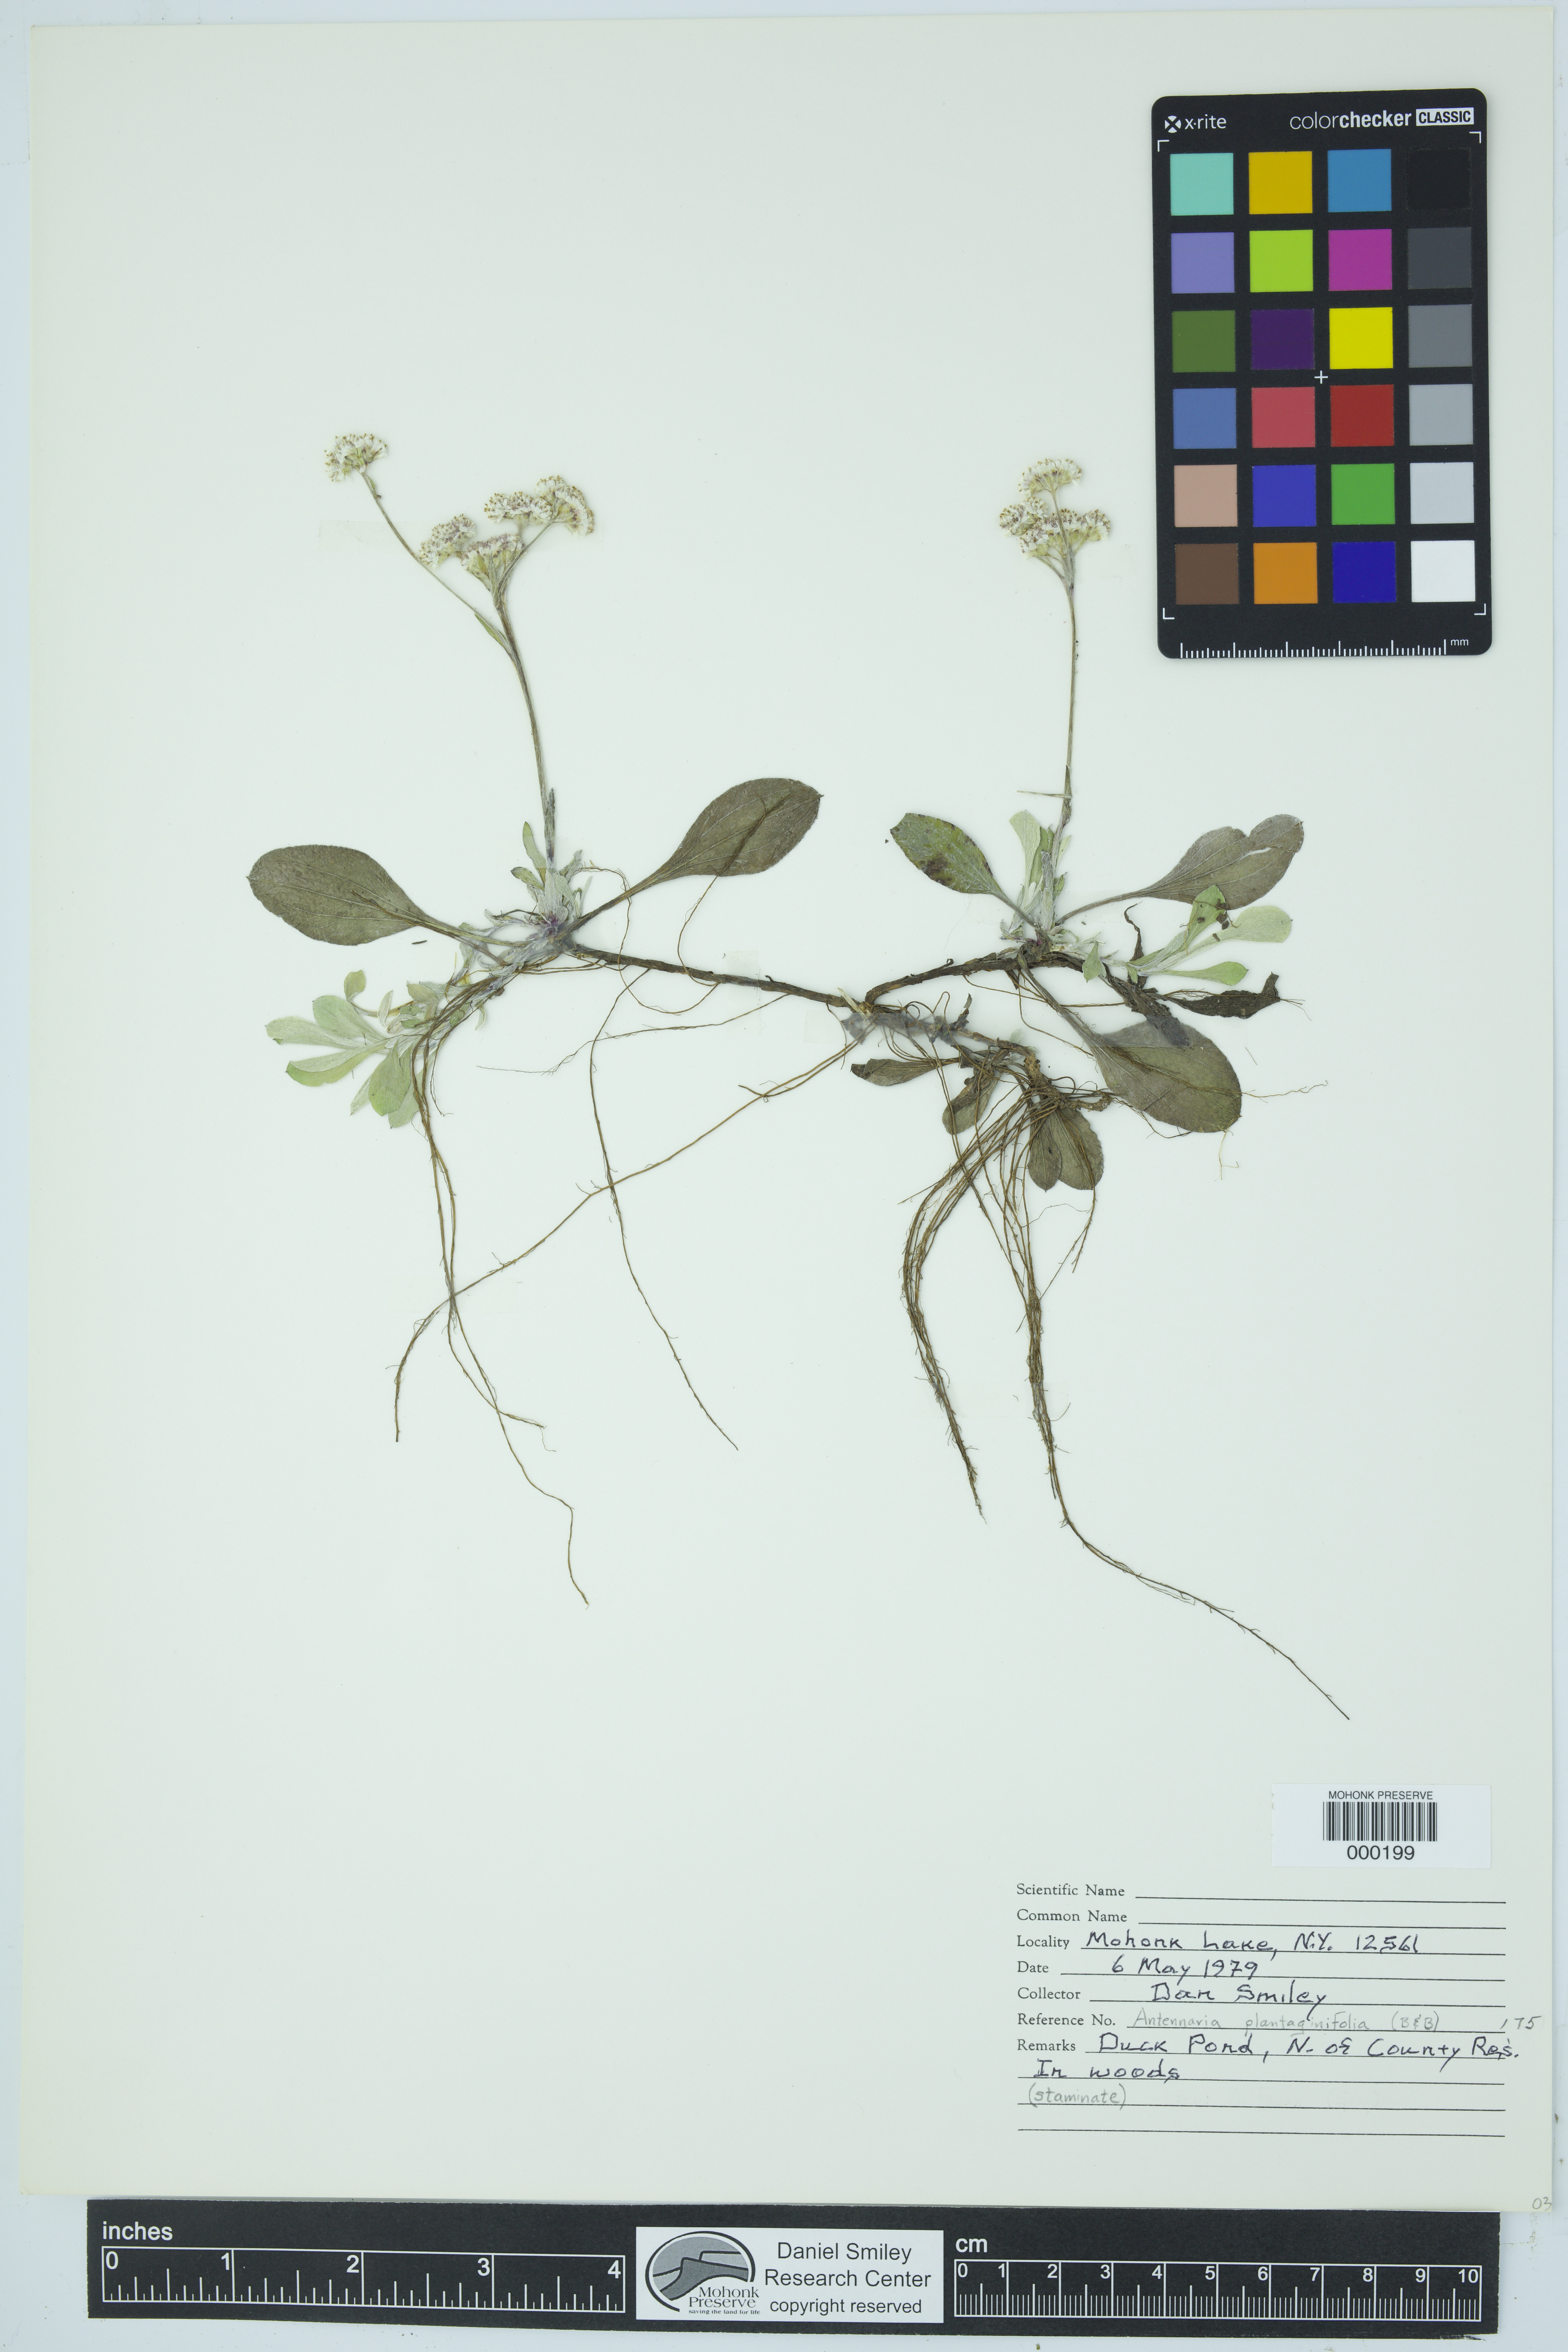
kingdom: Plantae
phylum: Tracheophyta
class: Magnoliopsida
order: Asterales
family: Asteraceae
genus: Antennaria
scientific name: Antennaria plantaginifolia
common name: Plantain-leaved pussytoes
